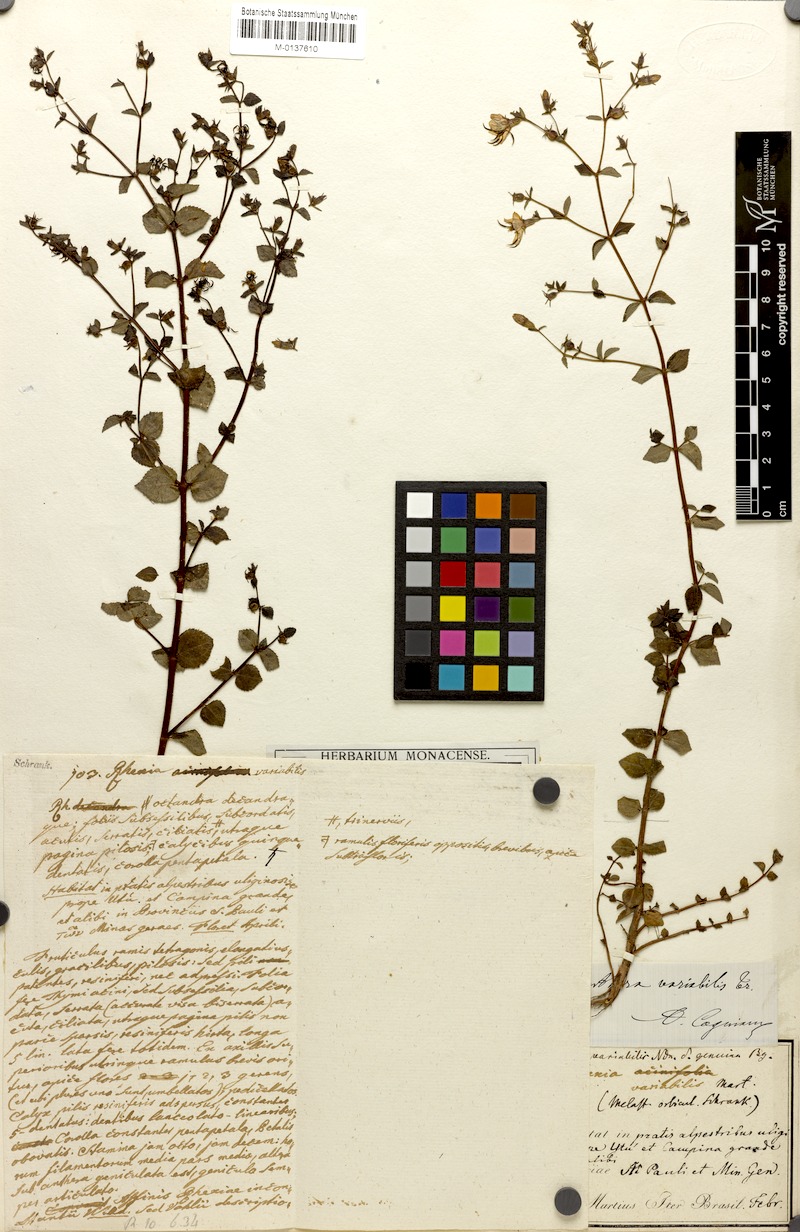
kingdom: Plantae
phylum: Tracheophyta
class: Magnoliopsida
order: Myrtales
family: Melastomataceae
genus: Acisanthera
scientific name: Acisanthera variabilis
